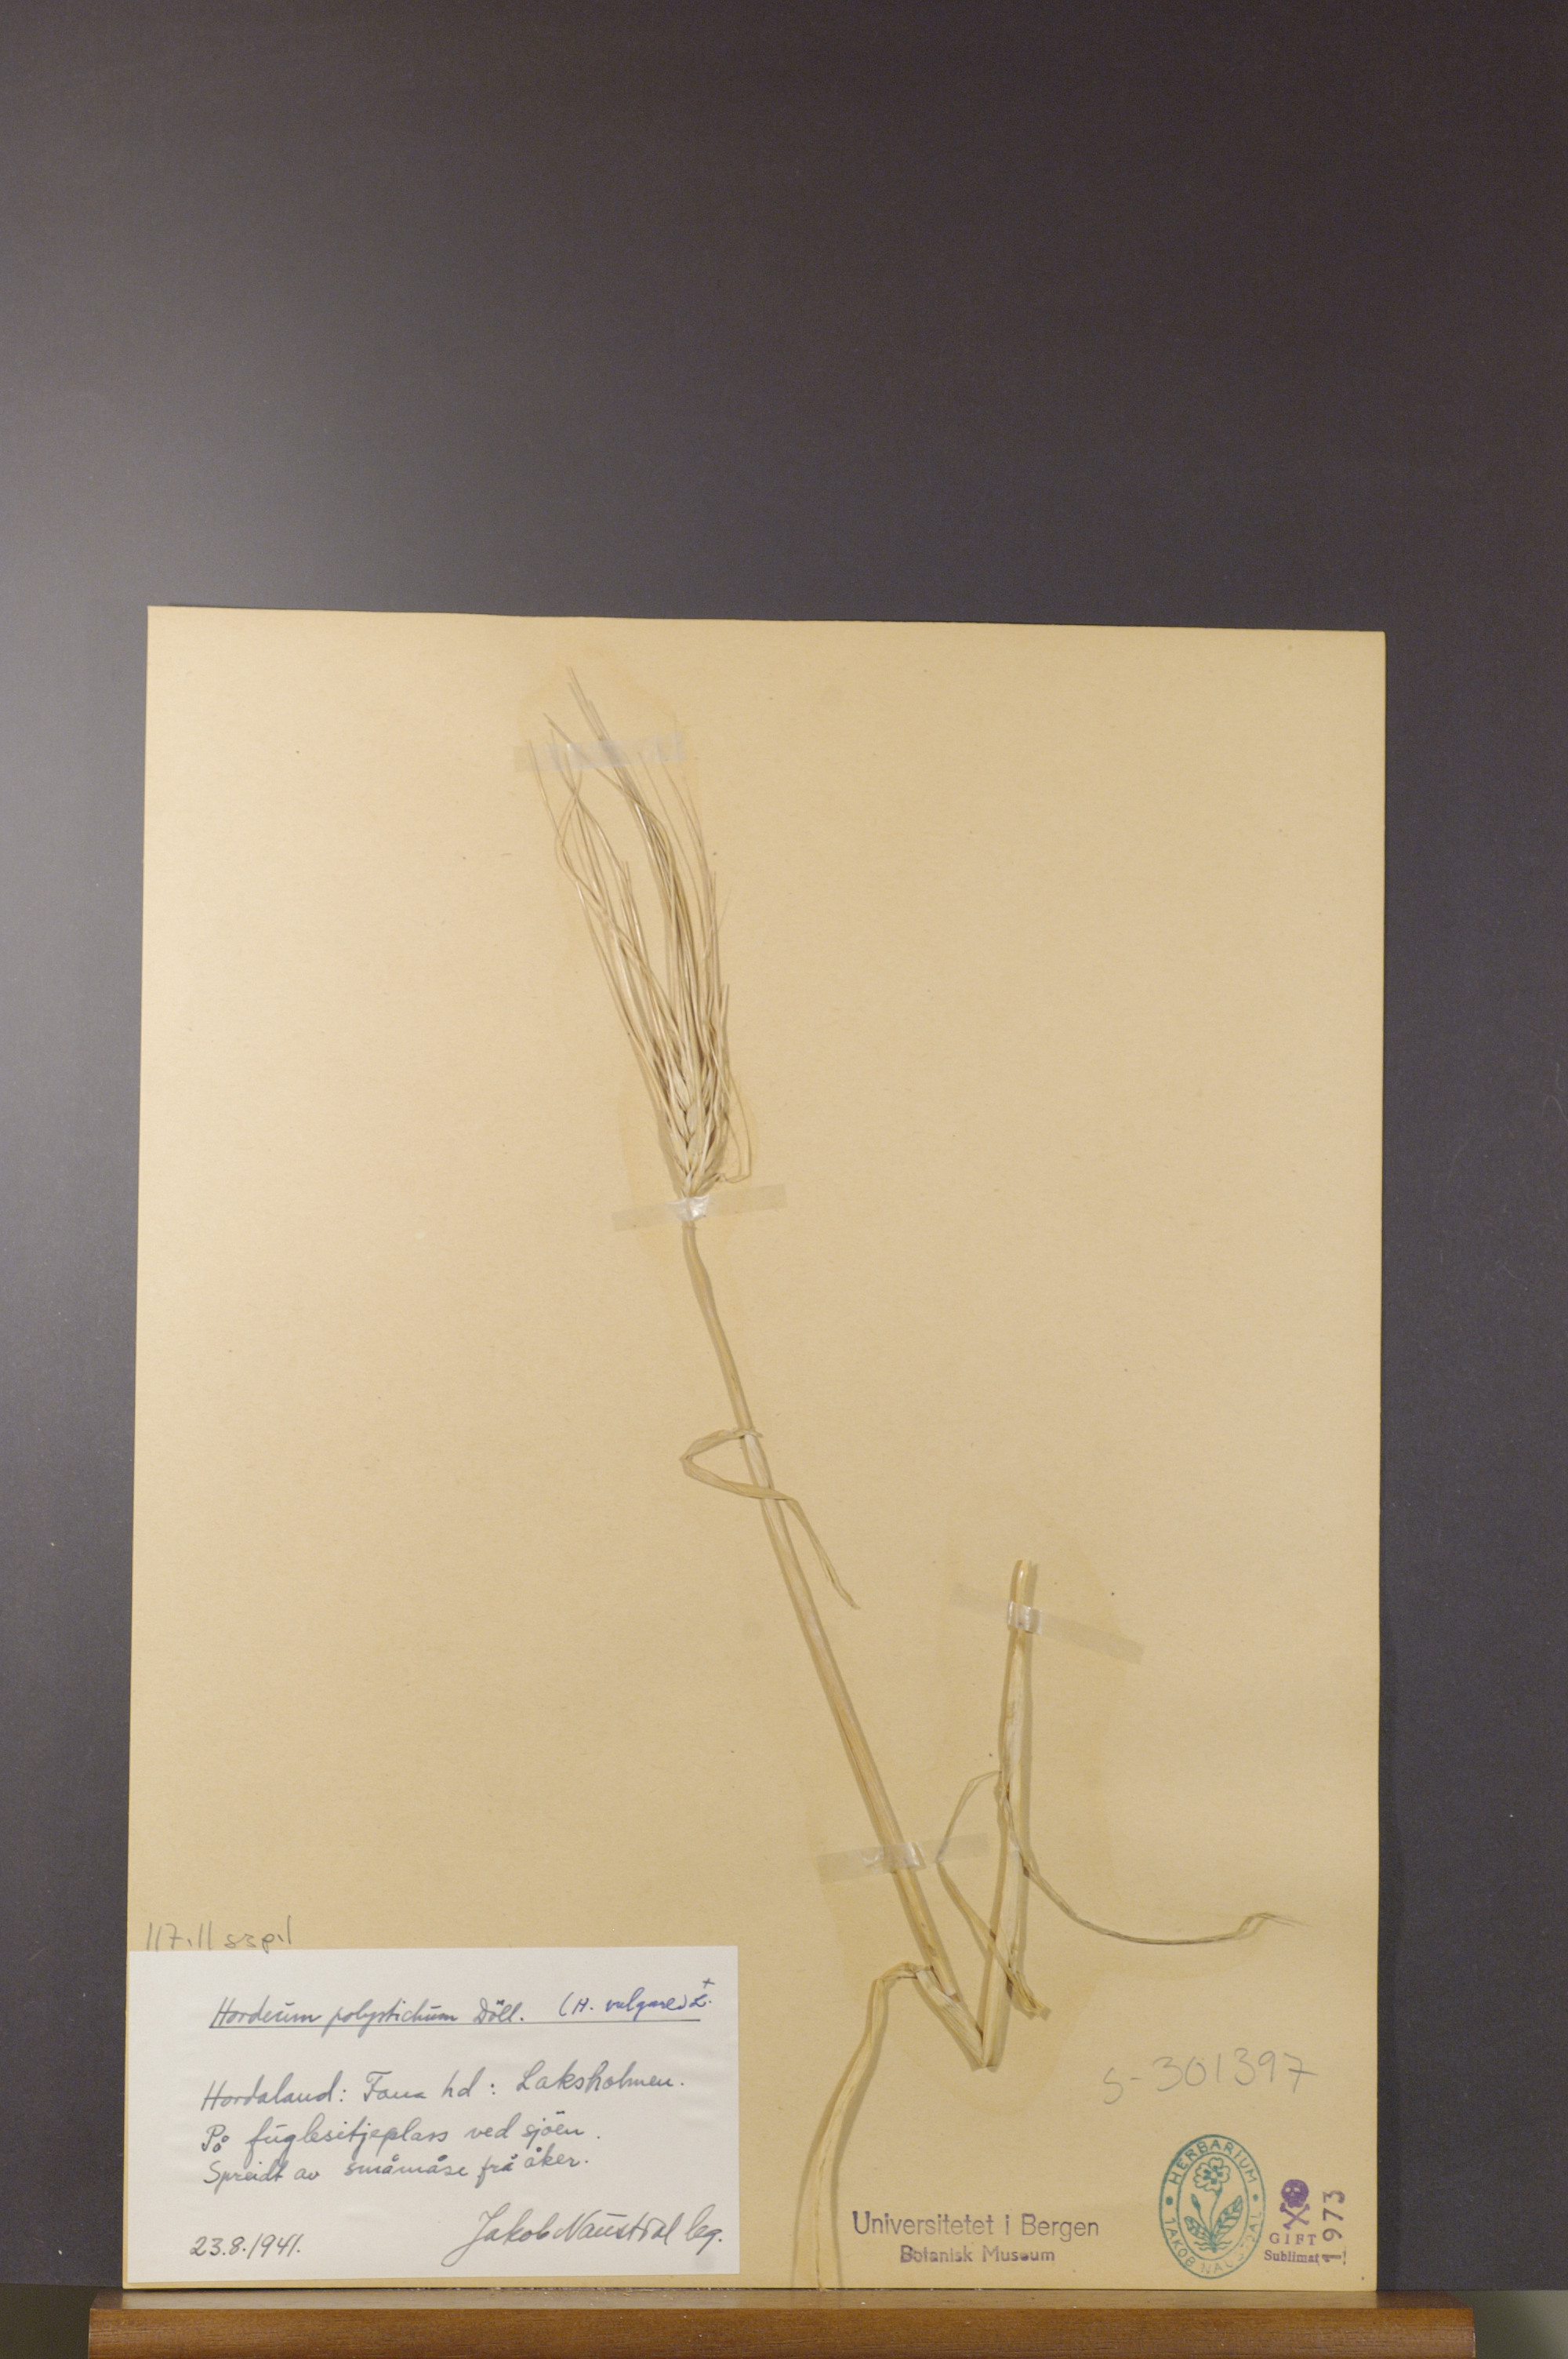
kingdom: Plantae
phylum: Tracheophyta
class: Liliopsida
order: Poales
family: Poaceae
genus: Hordeum
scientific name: Hordeum vulgare
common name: Common barley
